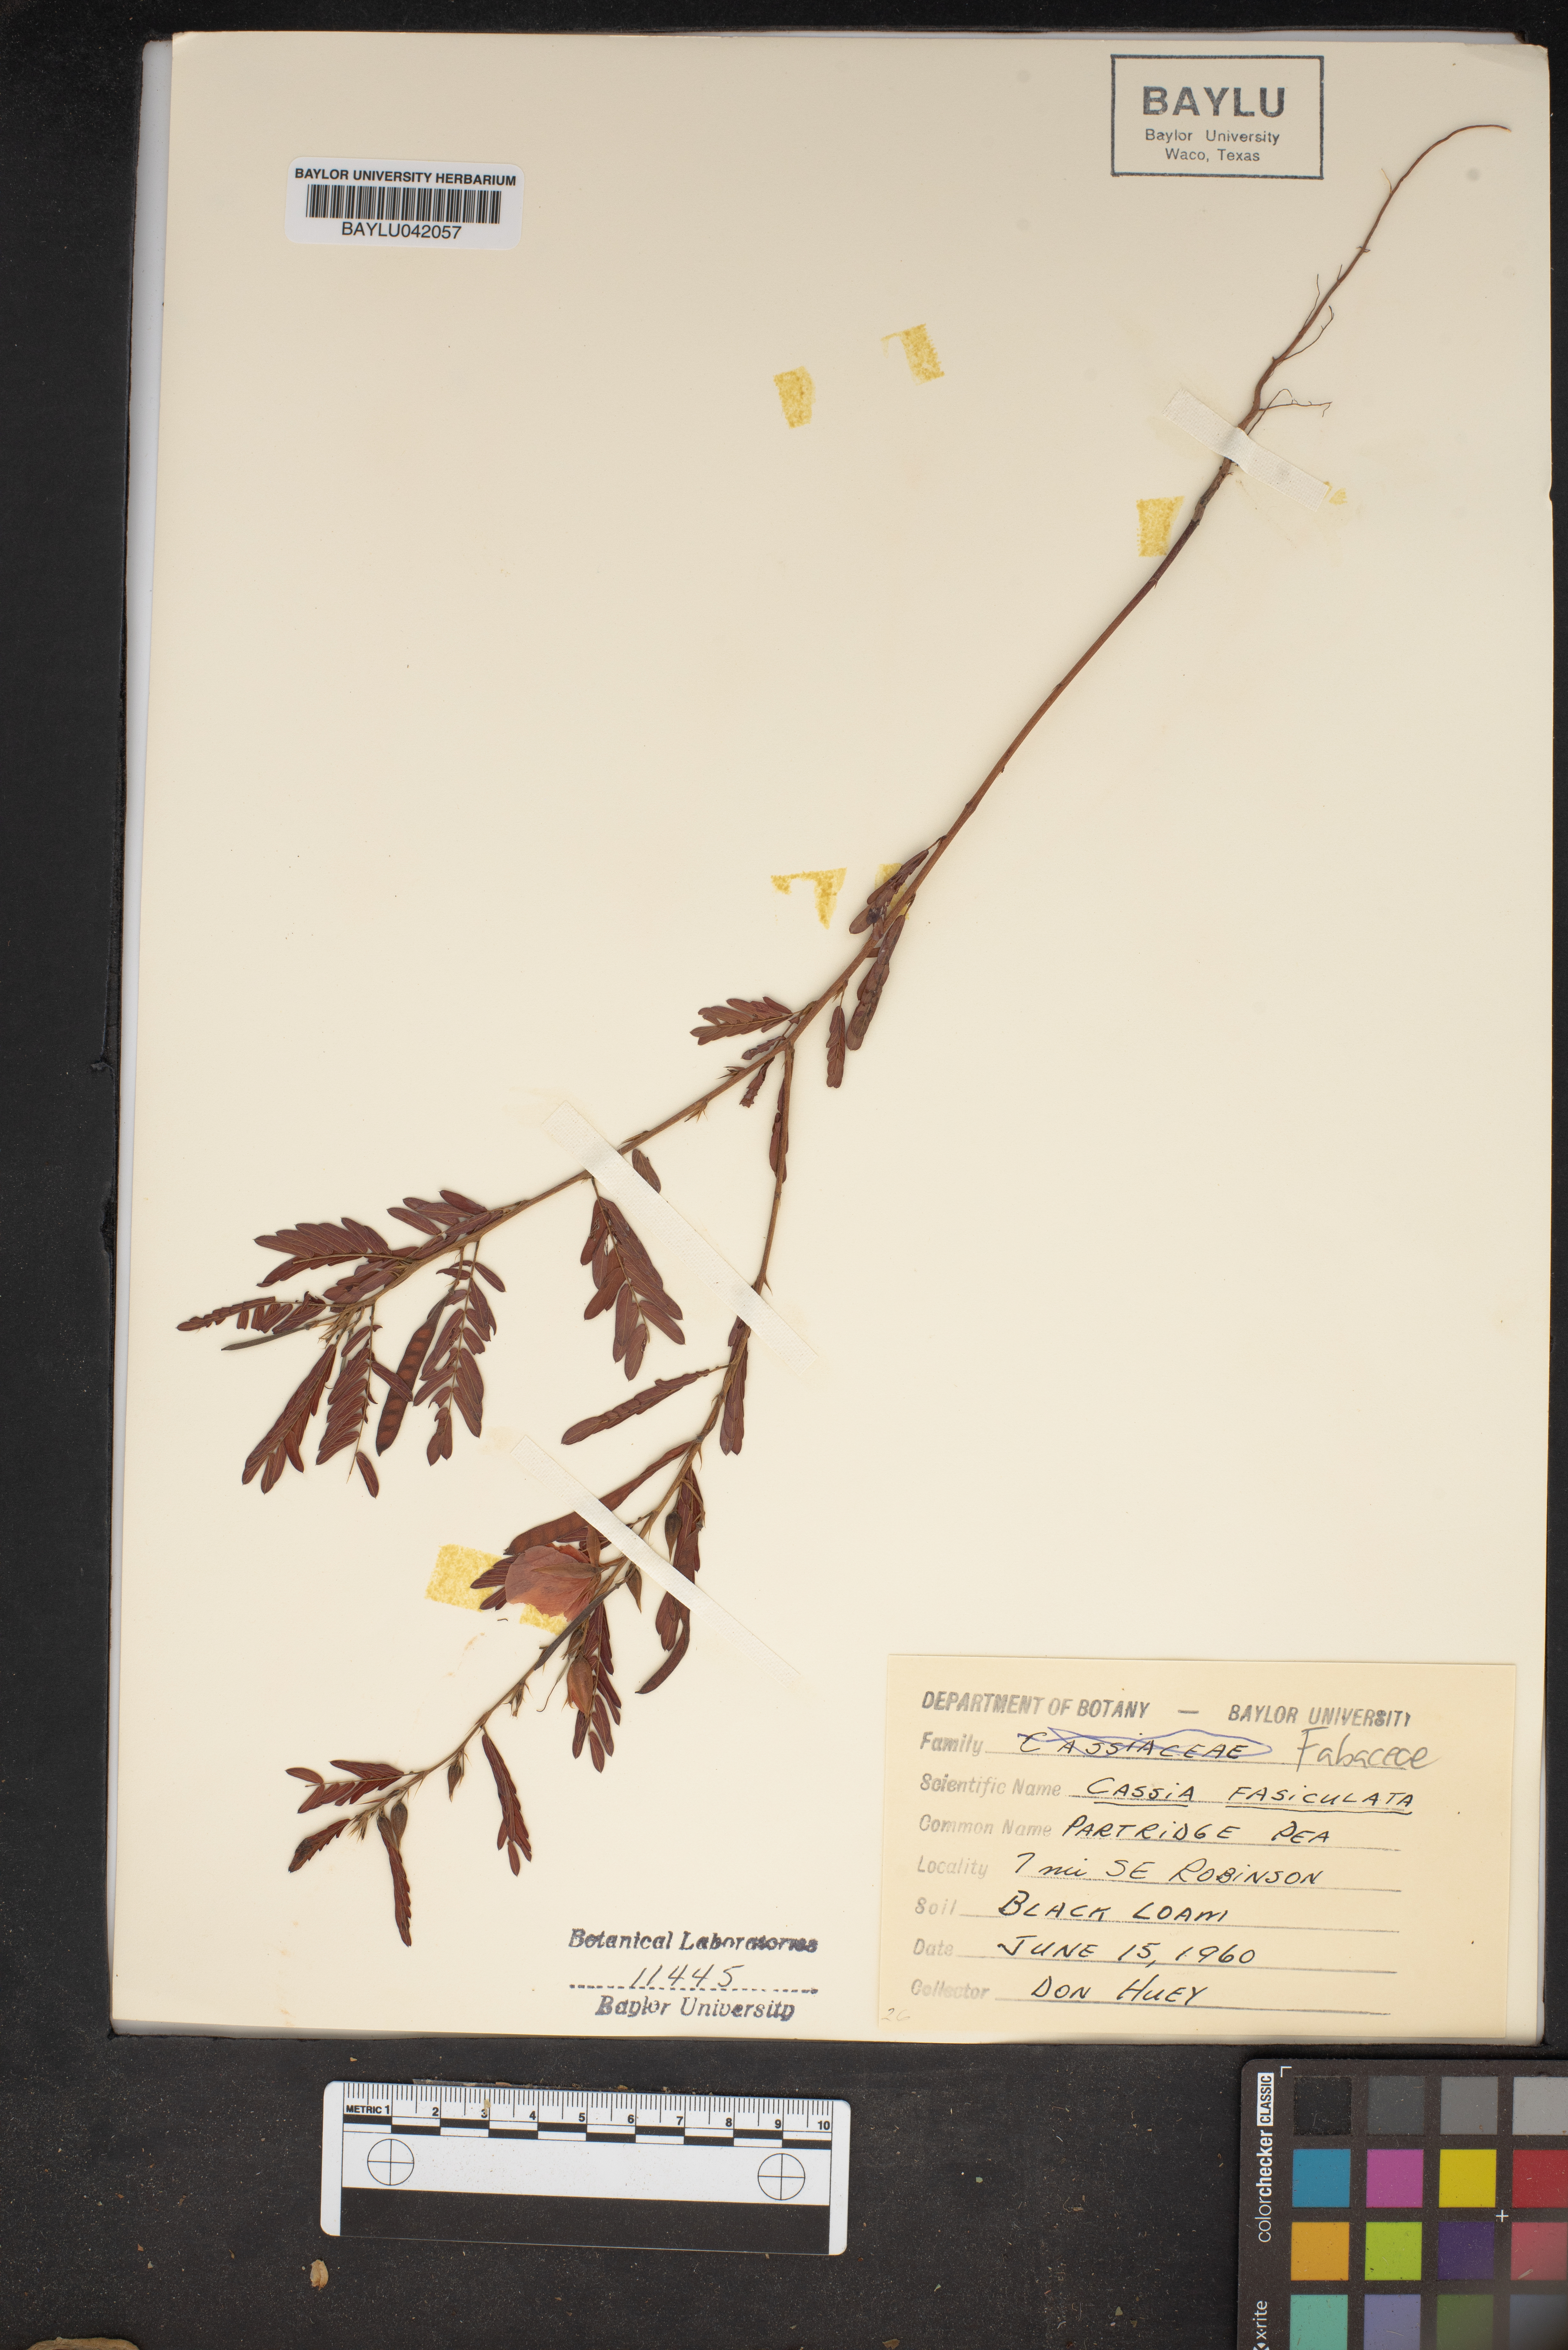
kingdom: Plantae
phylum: Tracheophyta
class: Magnoliopsida
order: Fabales
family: Fabaceae
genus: Chamaecrista
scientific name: Chamaecrista fasciculata
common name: Golden cassia
